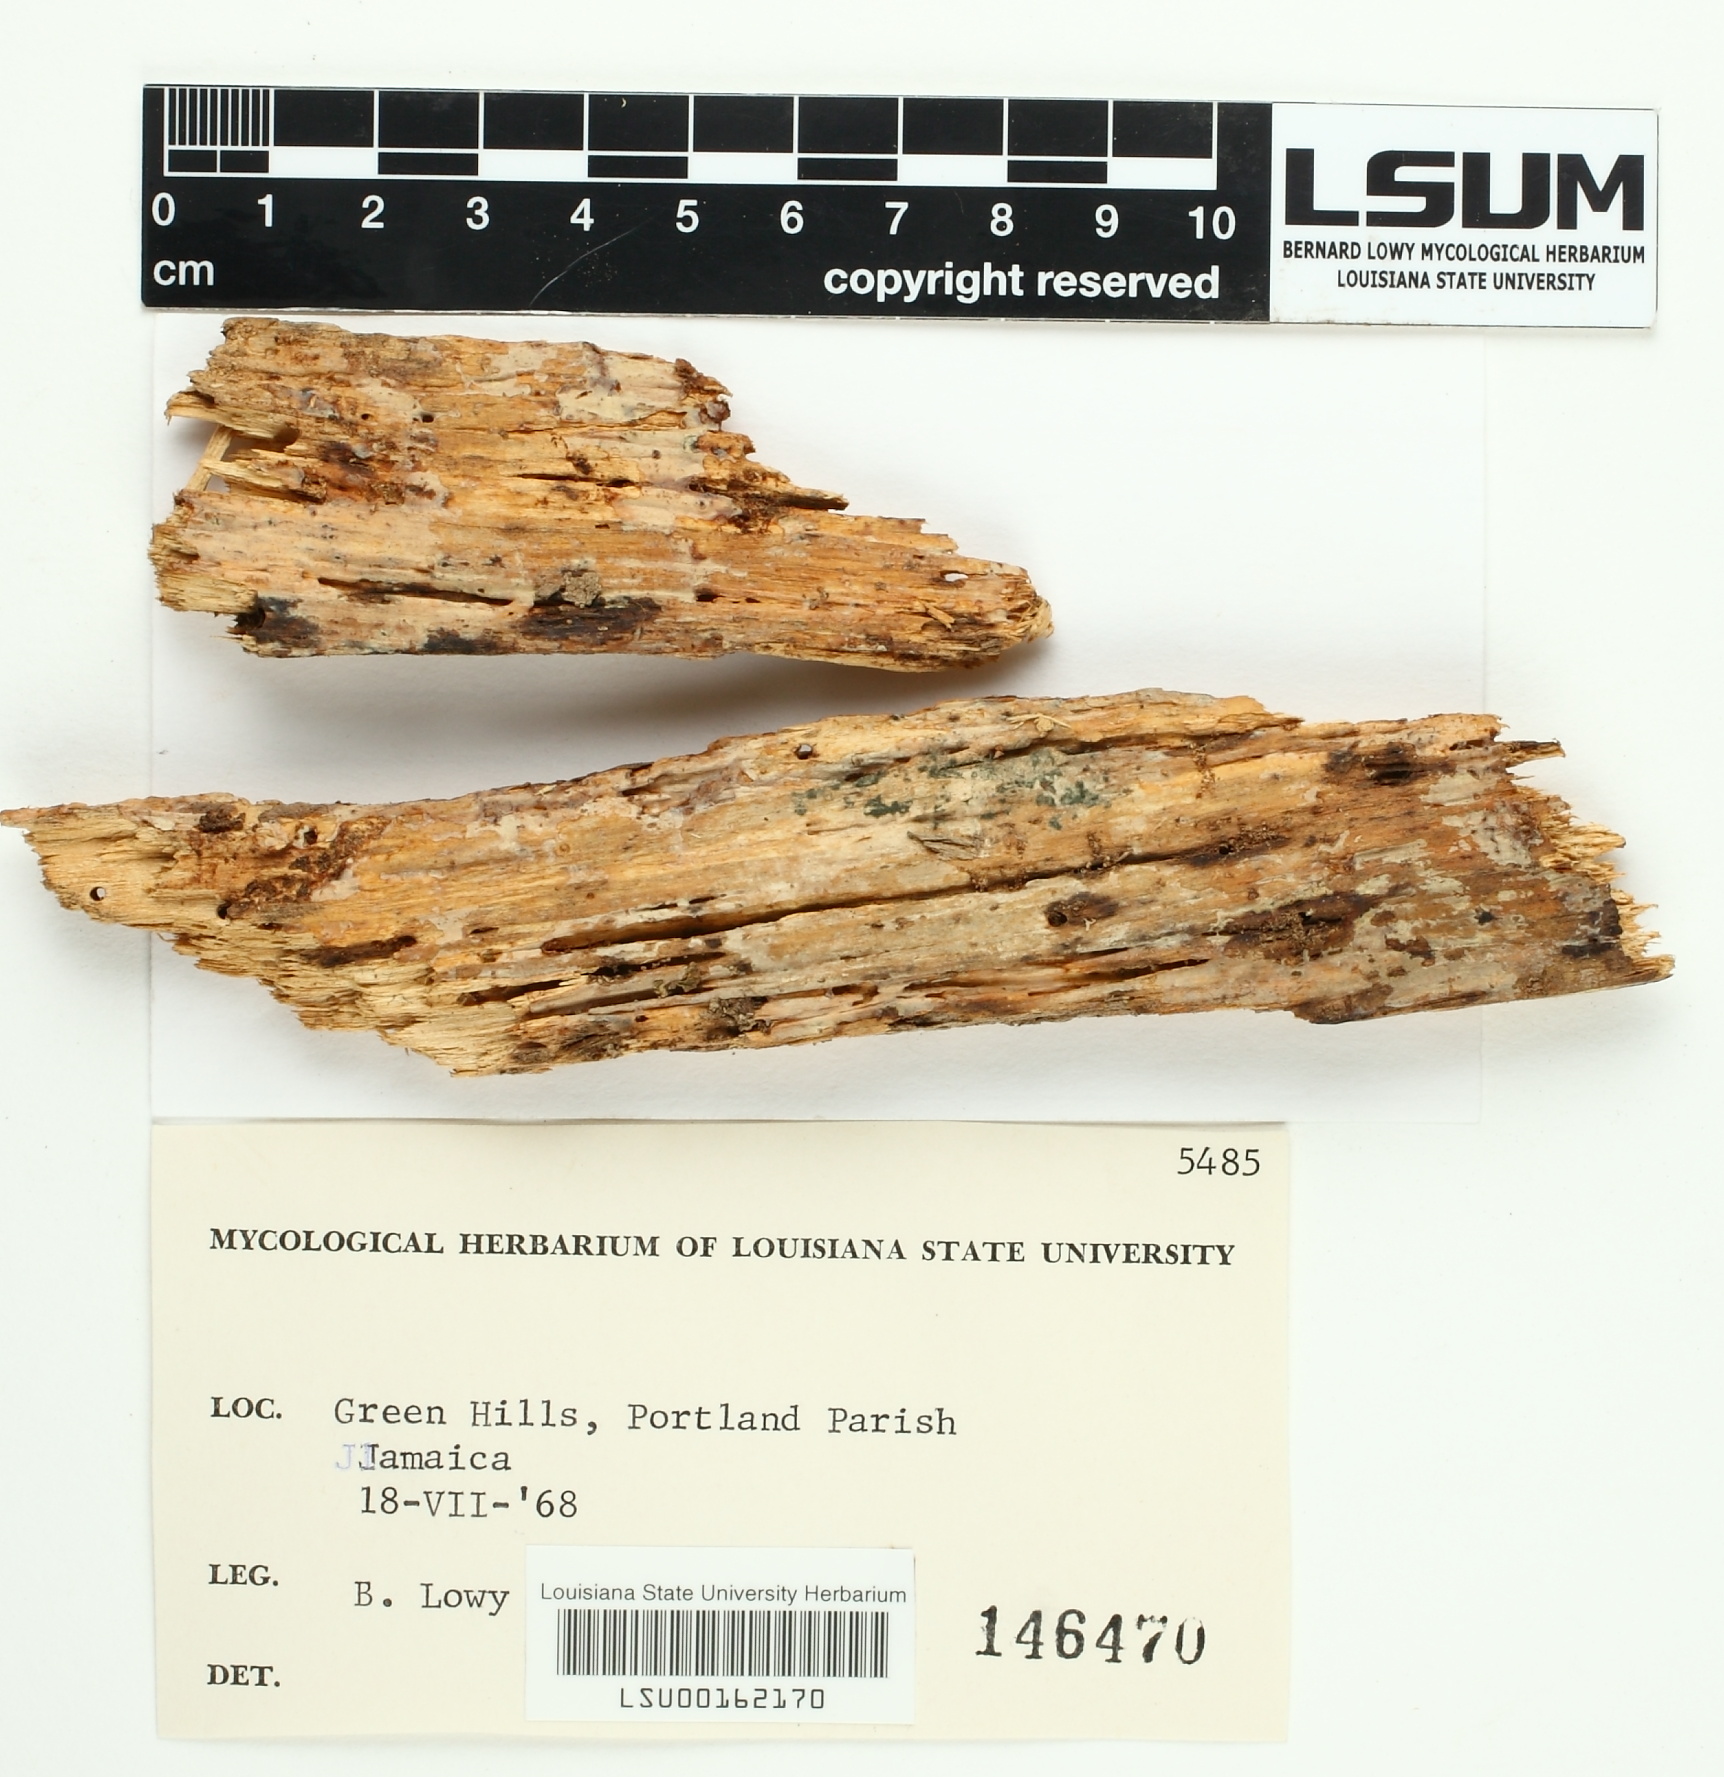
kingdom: Fungi
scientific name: Fungi
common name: Fungi
